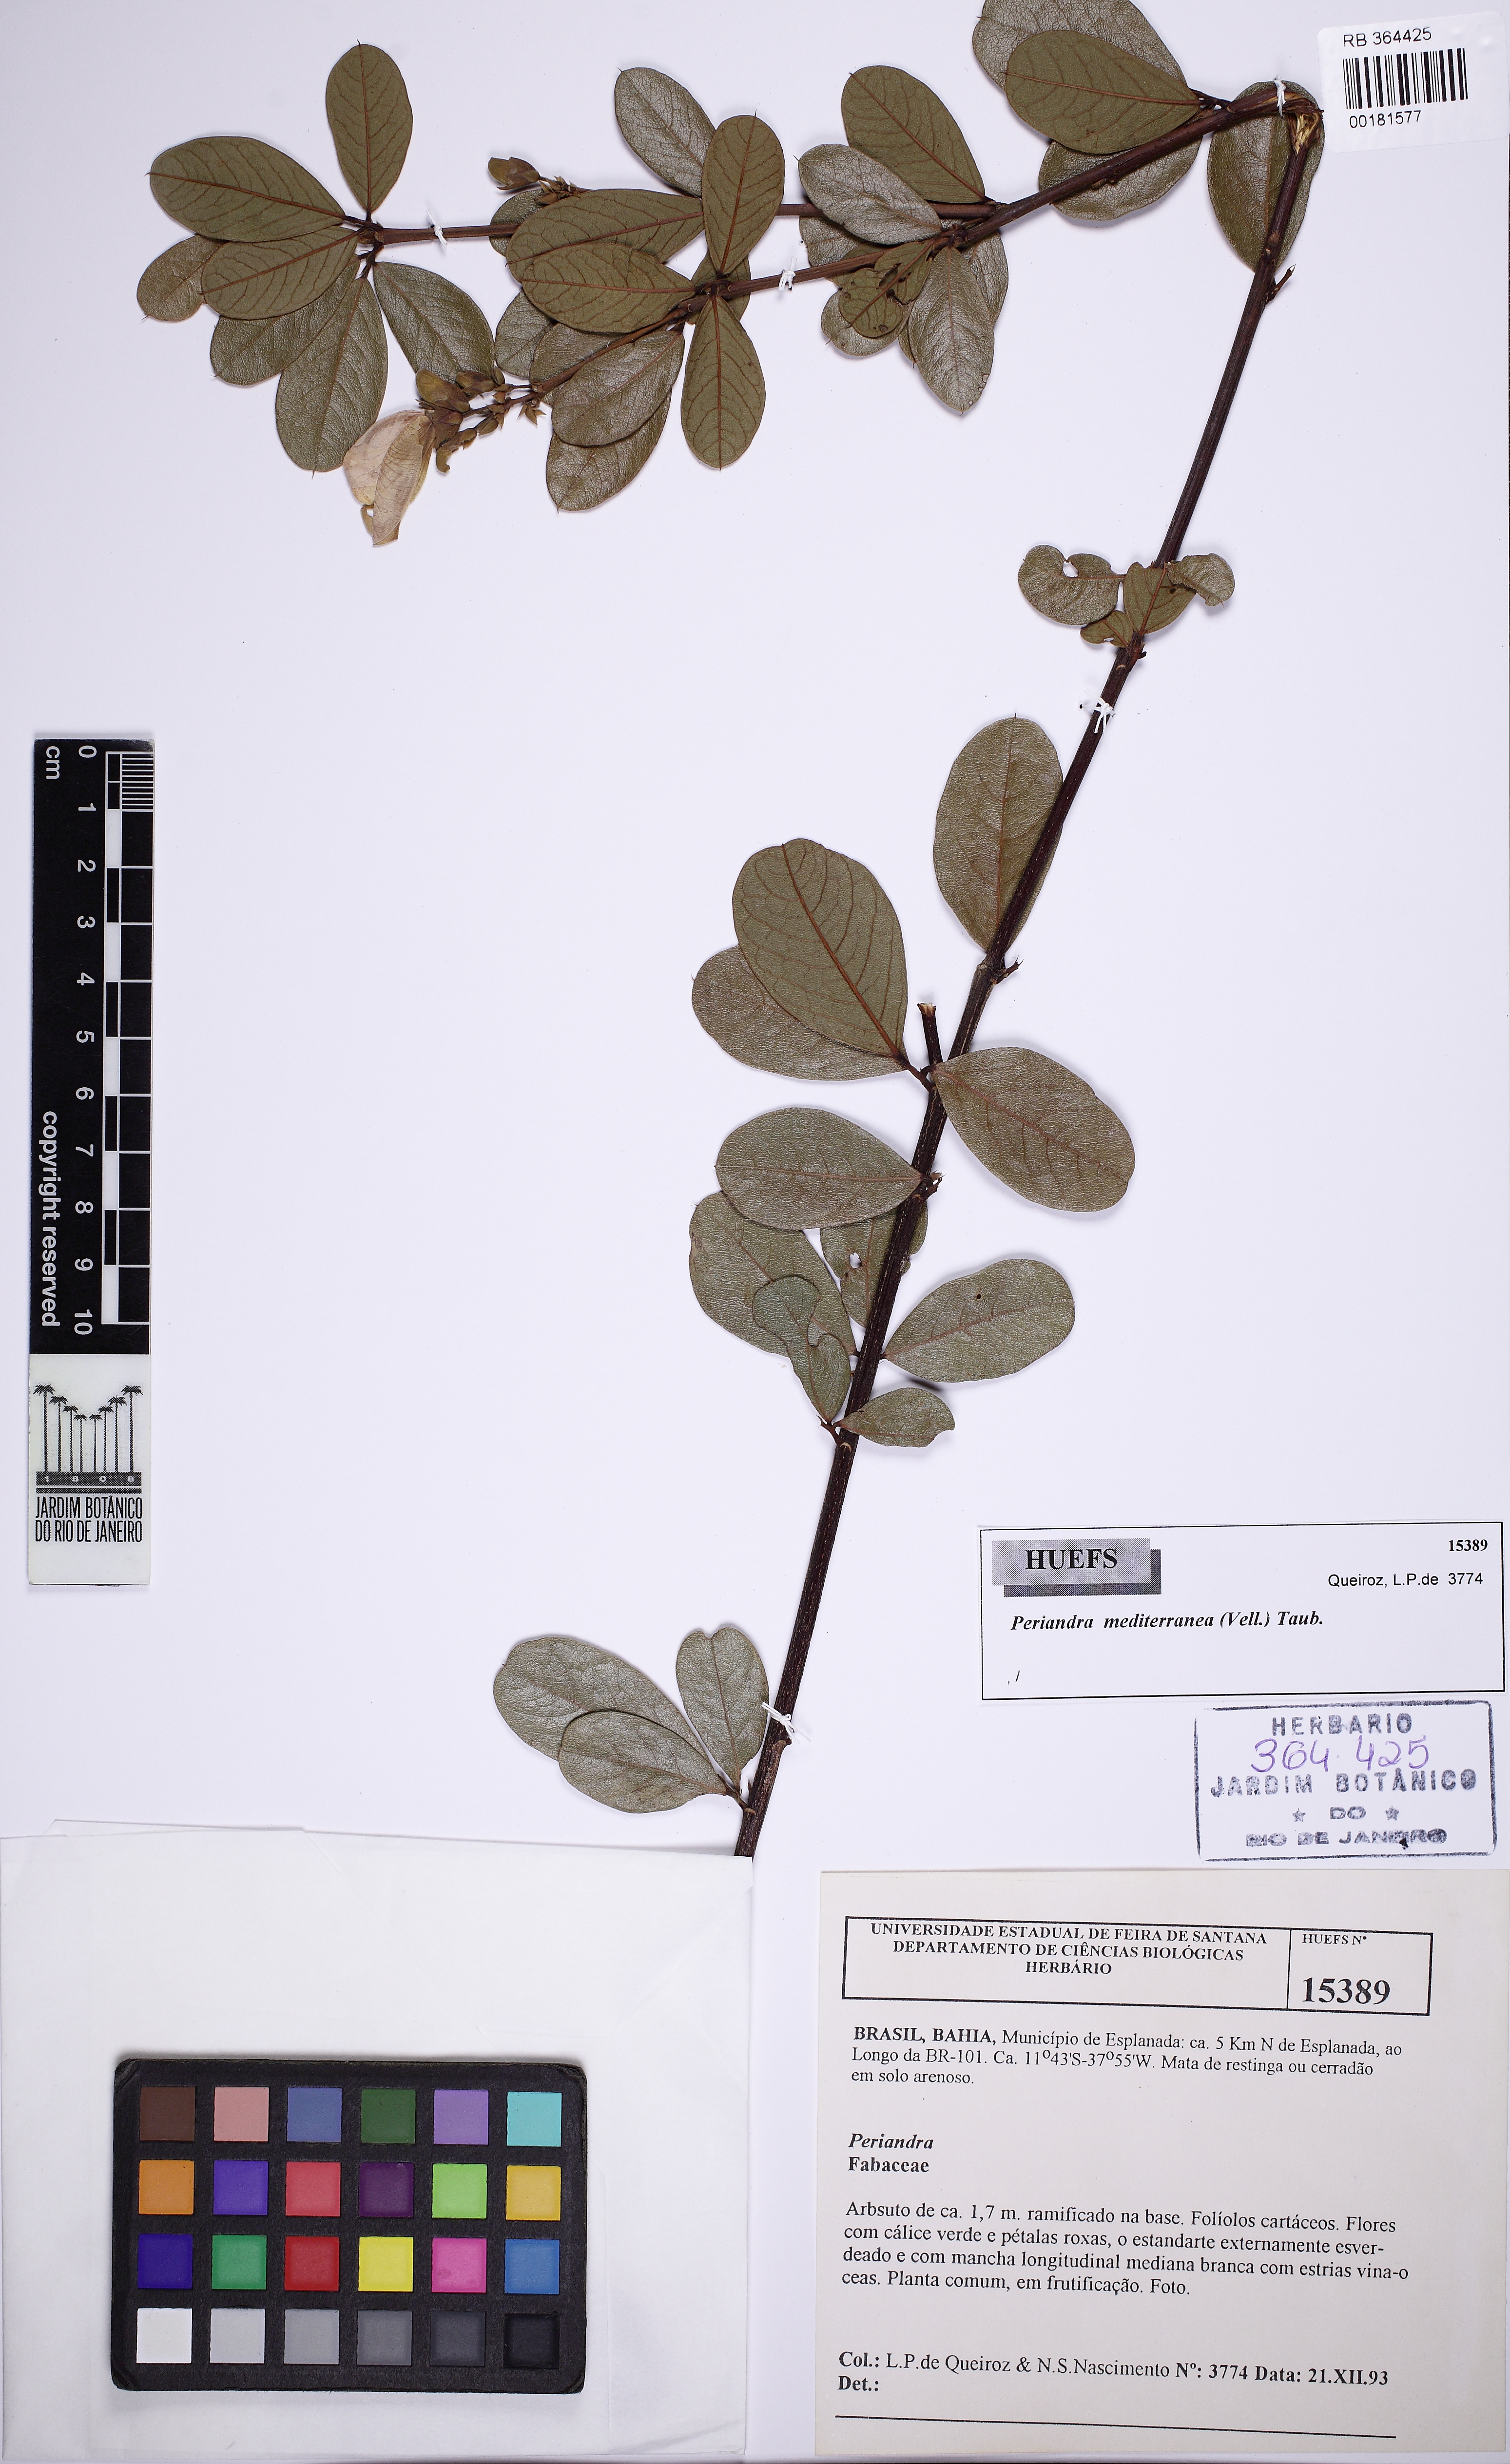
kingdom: Plantae
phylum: Tracheophyta
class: Magnoliopsida
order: Fabales
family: Fabaceae
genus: Periandra
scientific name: Periandra mediterranea
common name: Brazilian licorice
